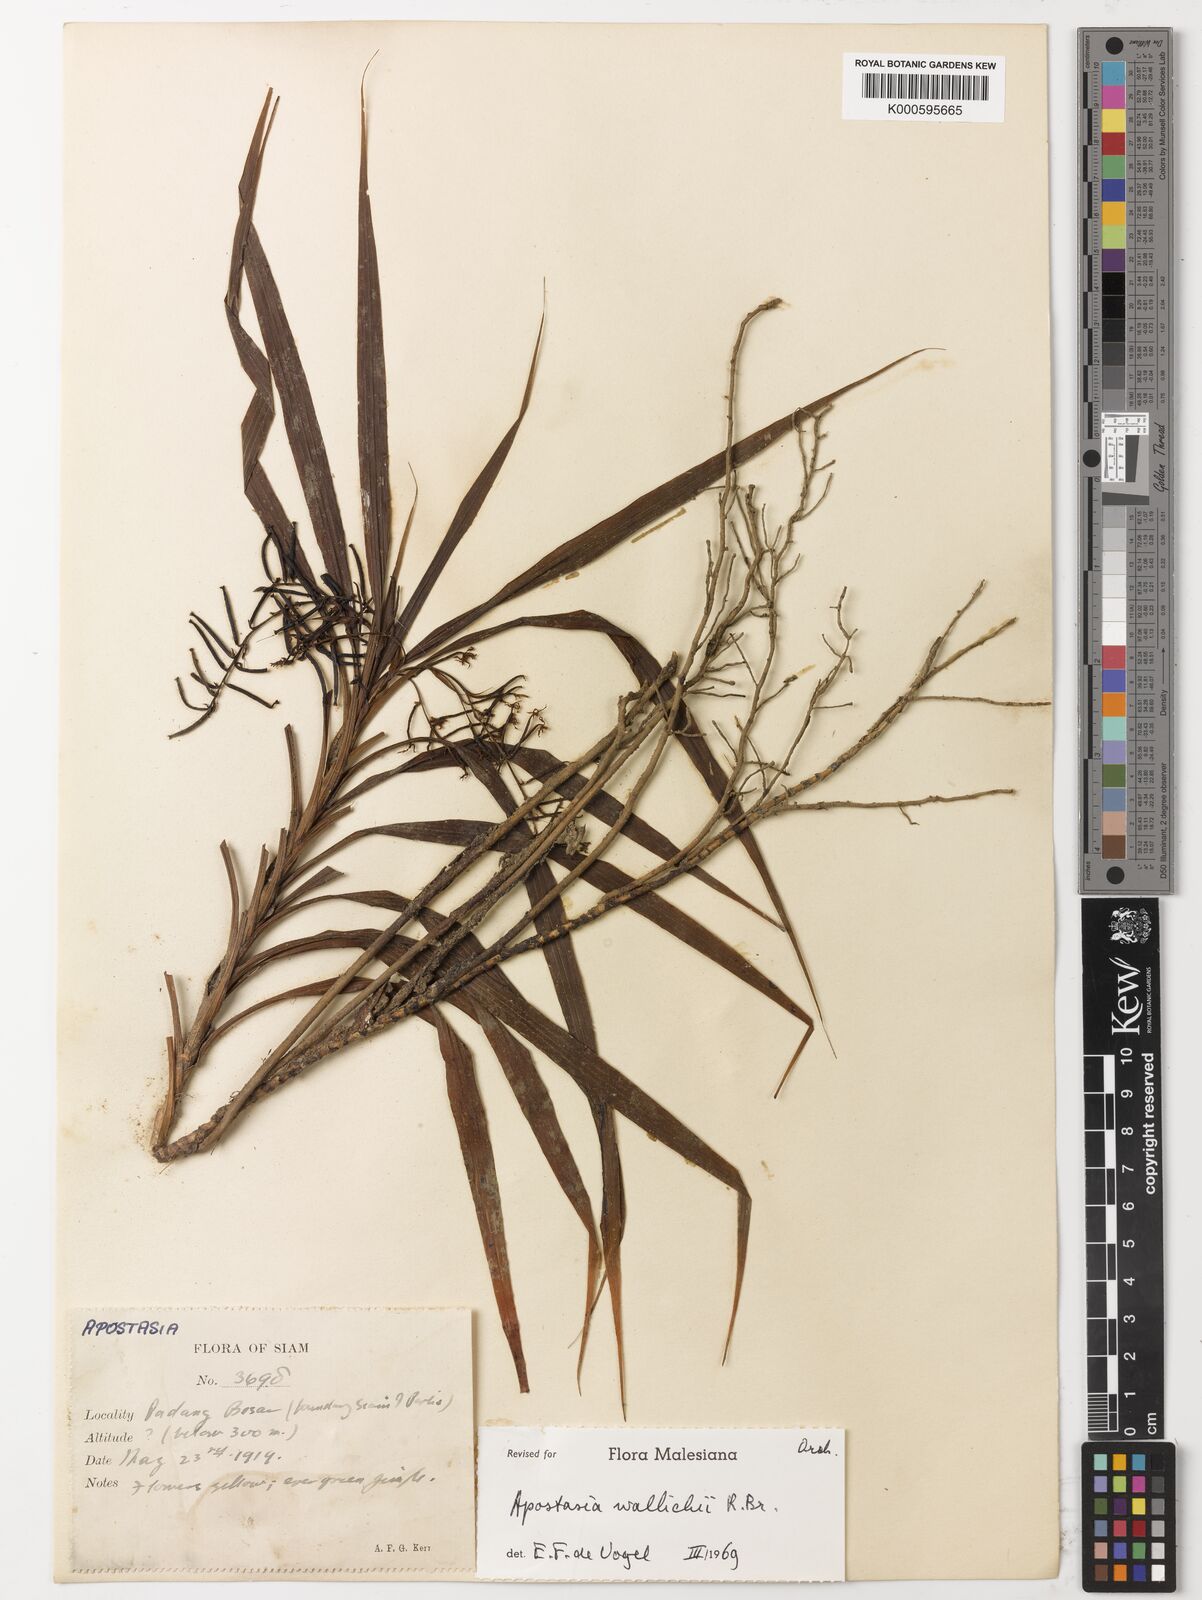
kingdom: Plantae
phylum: Tracheophyta
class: Liliopsida
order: Asparagales
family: Orchidaceae
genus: Apostasia
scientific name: Apostasia wallichii
